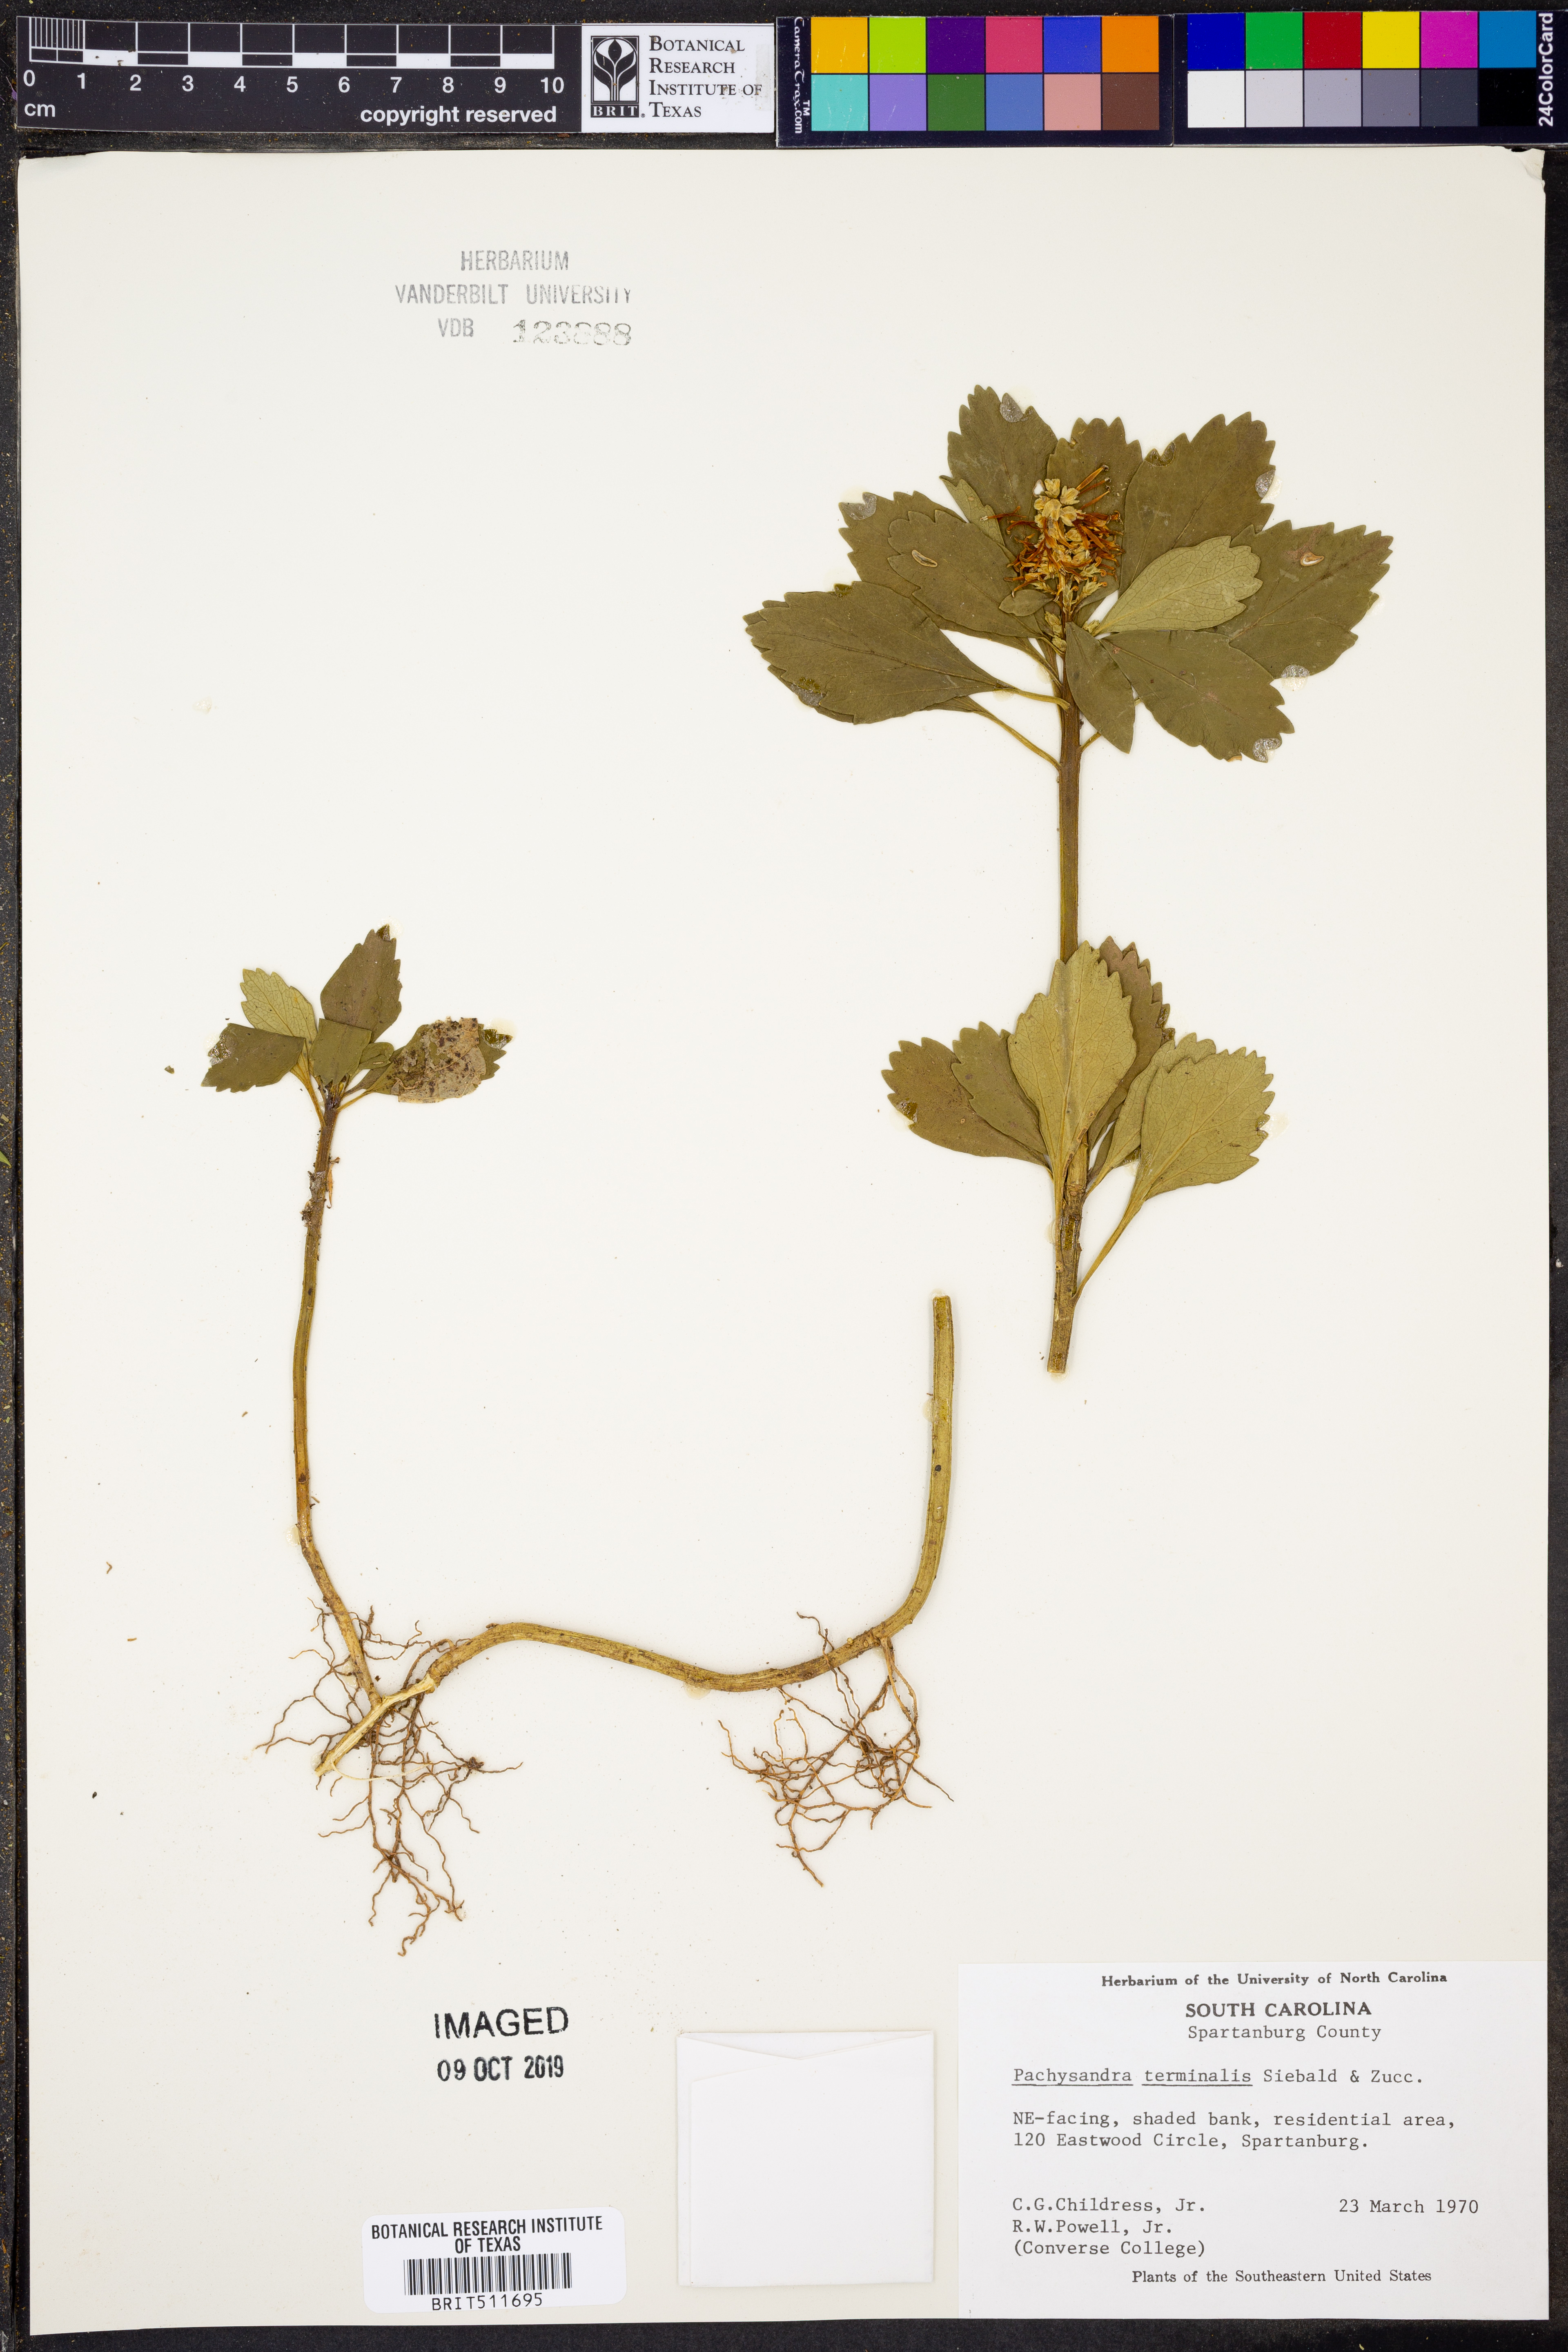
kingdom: Plantae
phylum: Tracheophyta
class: Magnoliopsida
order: Buxales
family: Buxaceae
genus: Pachysandra
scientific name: Pachysandra terminalis
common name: Japanese pachysandra
